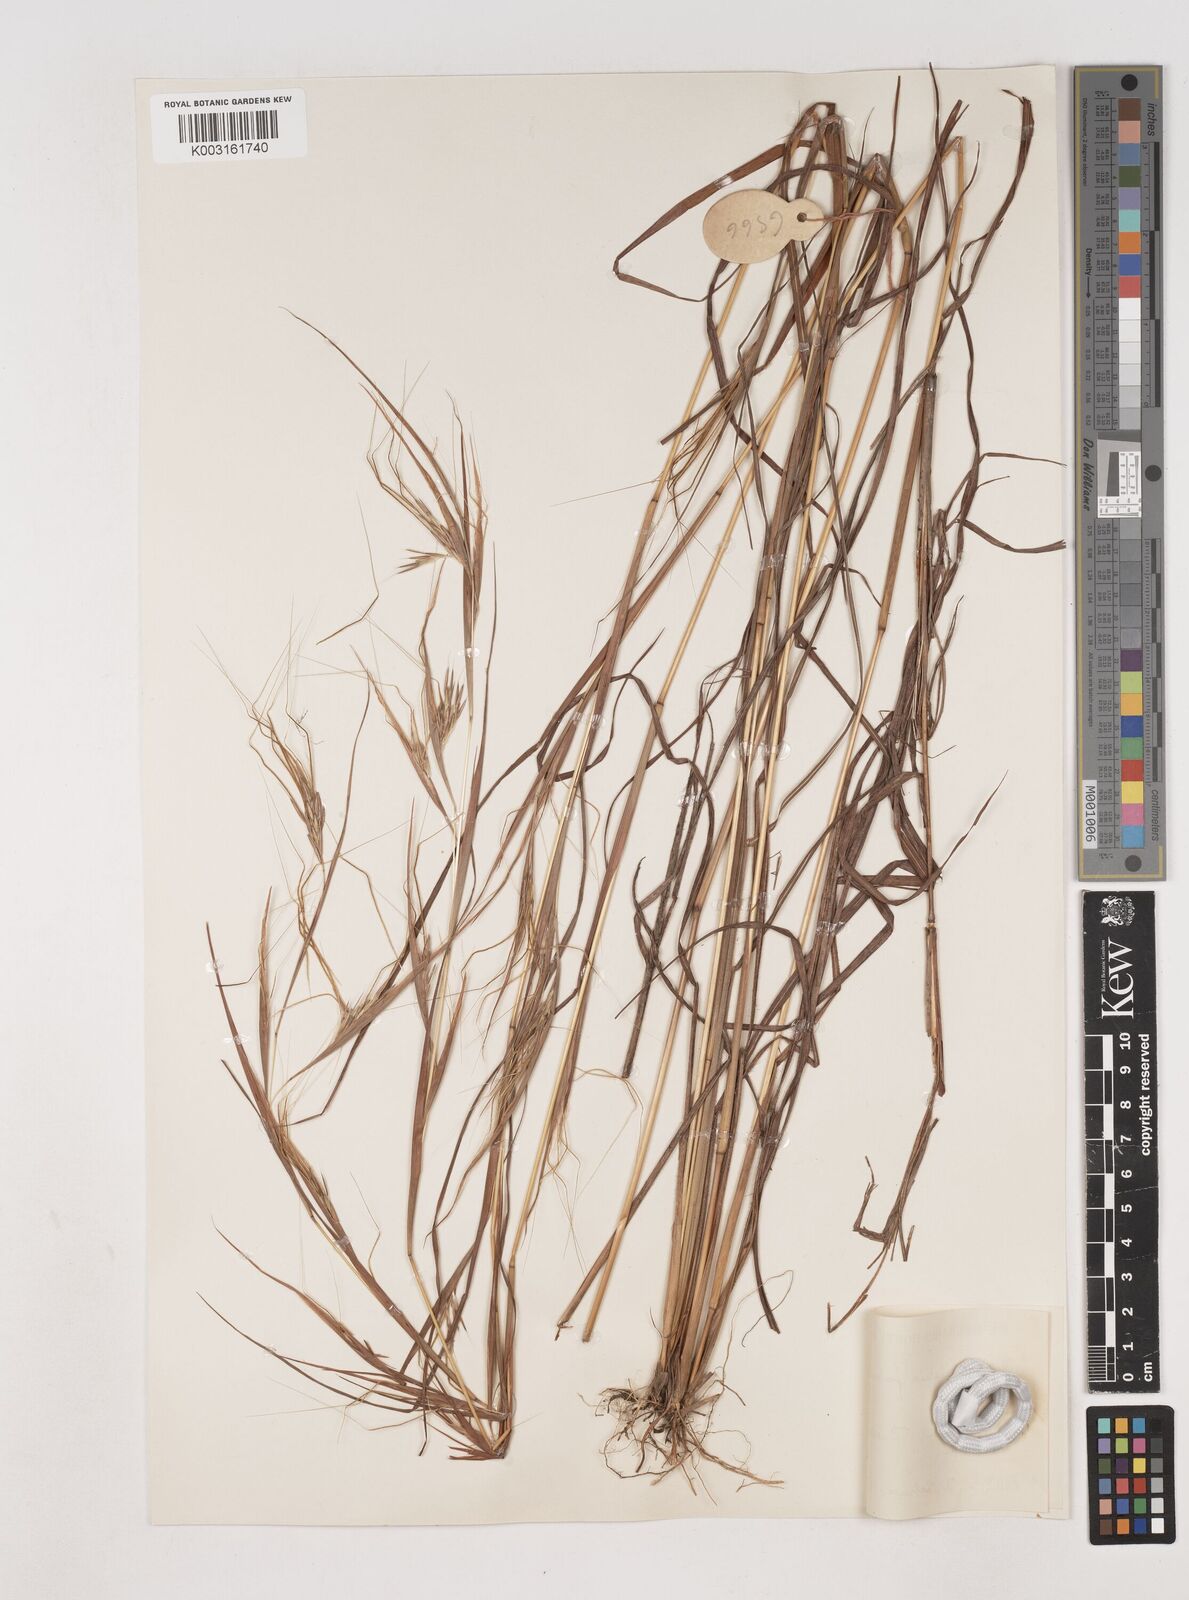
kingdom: Plantae
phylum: Tracheophyta
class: Liliopsida
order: Poales
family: Poaceae
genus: Hyparrhenia
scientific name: Hyparrhenia familiaris
